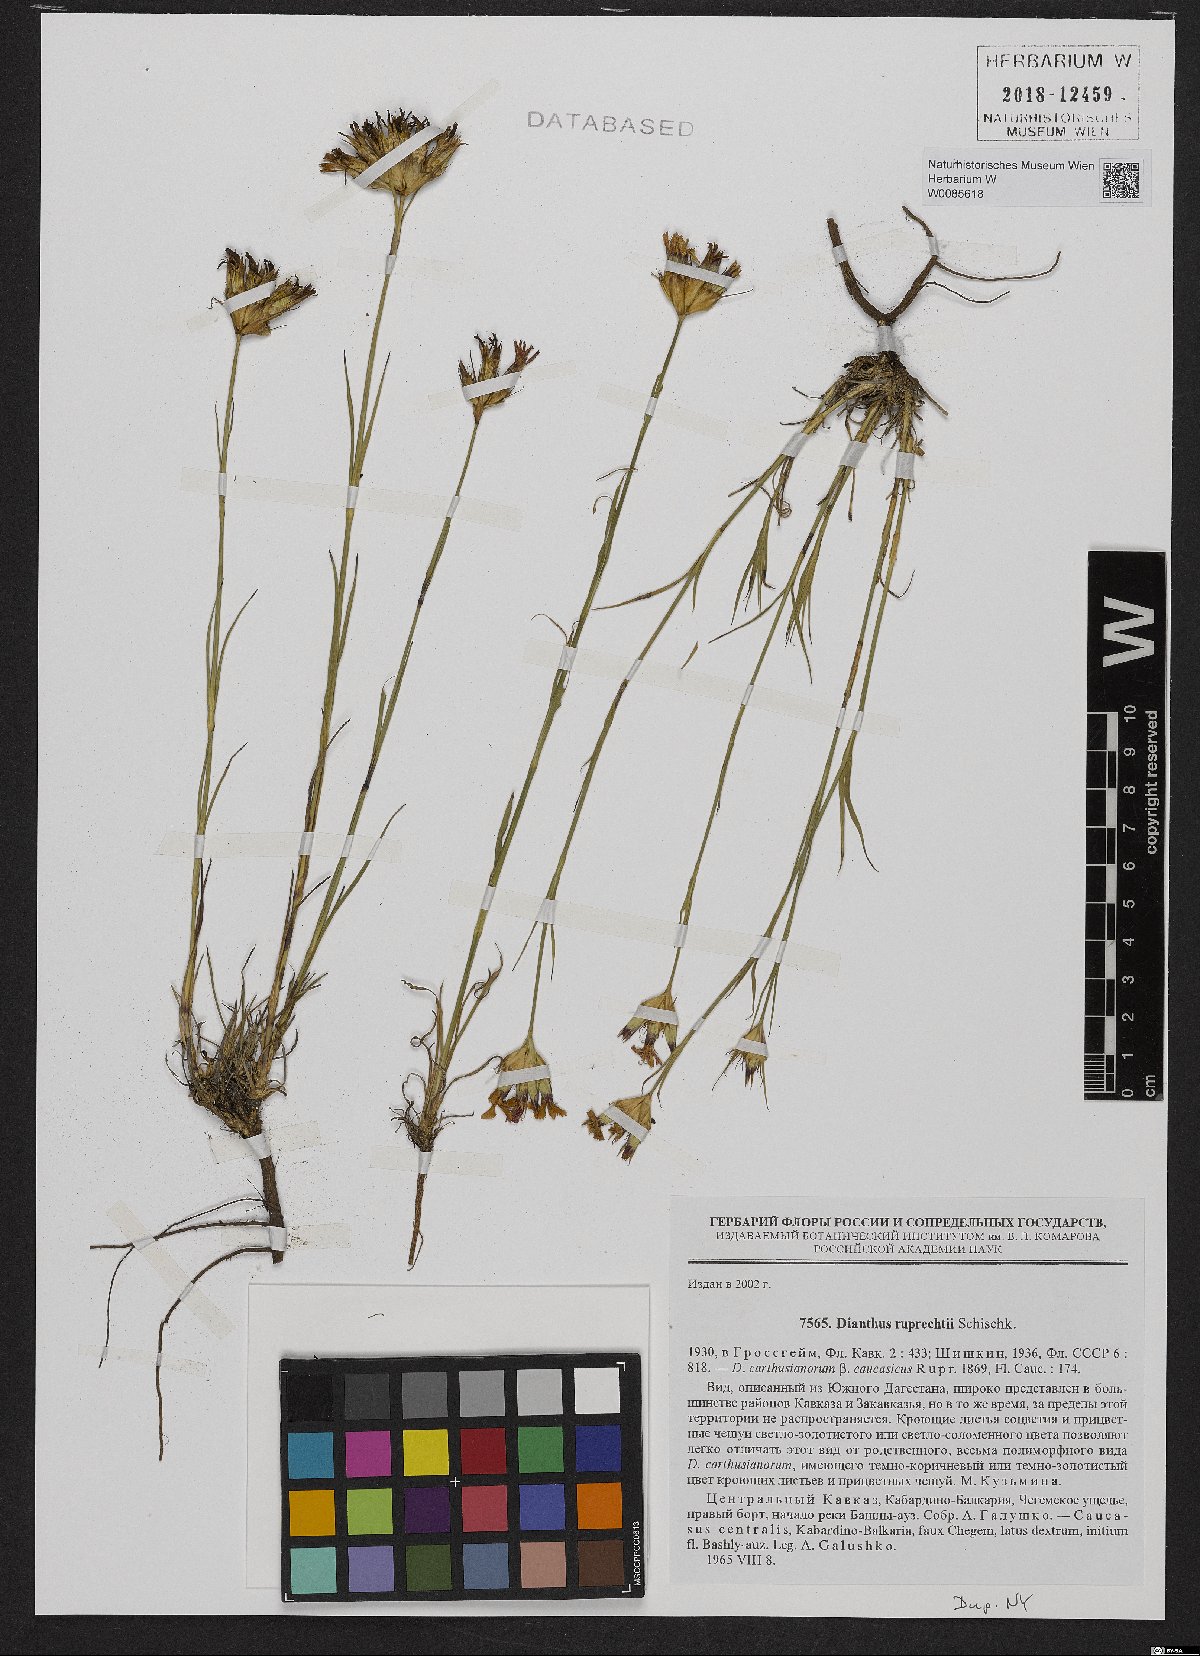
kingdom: Plantae
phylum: Tracheophyta
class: Magnoliopsida
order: Caryophyllales
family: Caryophyllaceae
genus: Dianthus
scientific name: Dianthus ruprechtii
